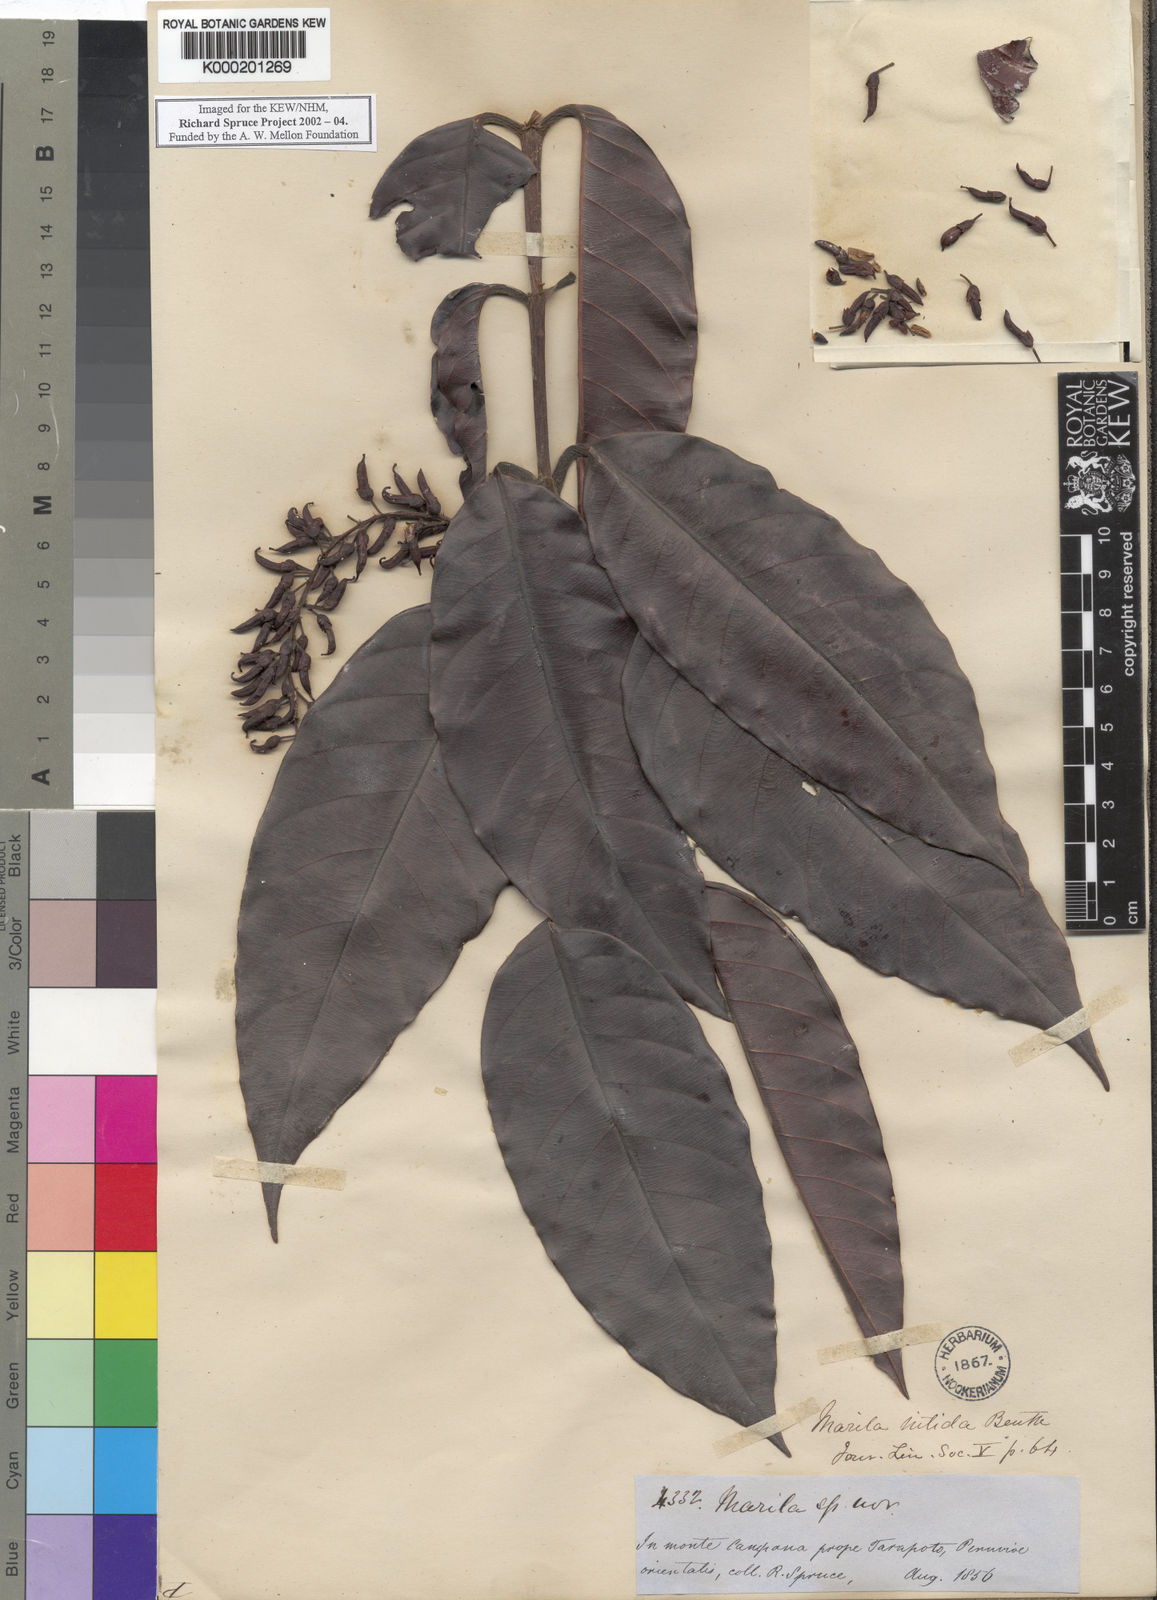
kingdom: Plantae
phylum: Tracheophyta
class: Magnoliopsida
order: Malpighiales
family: Calophyllaceae
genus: Marila
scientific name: Marila nitida
